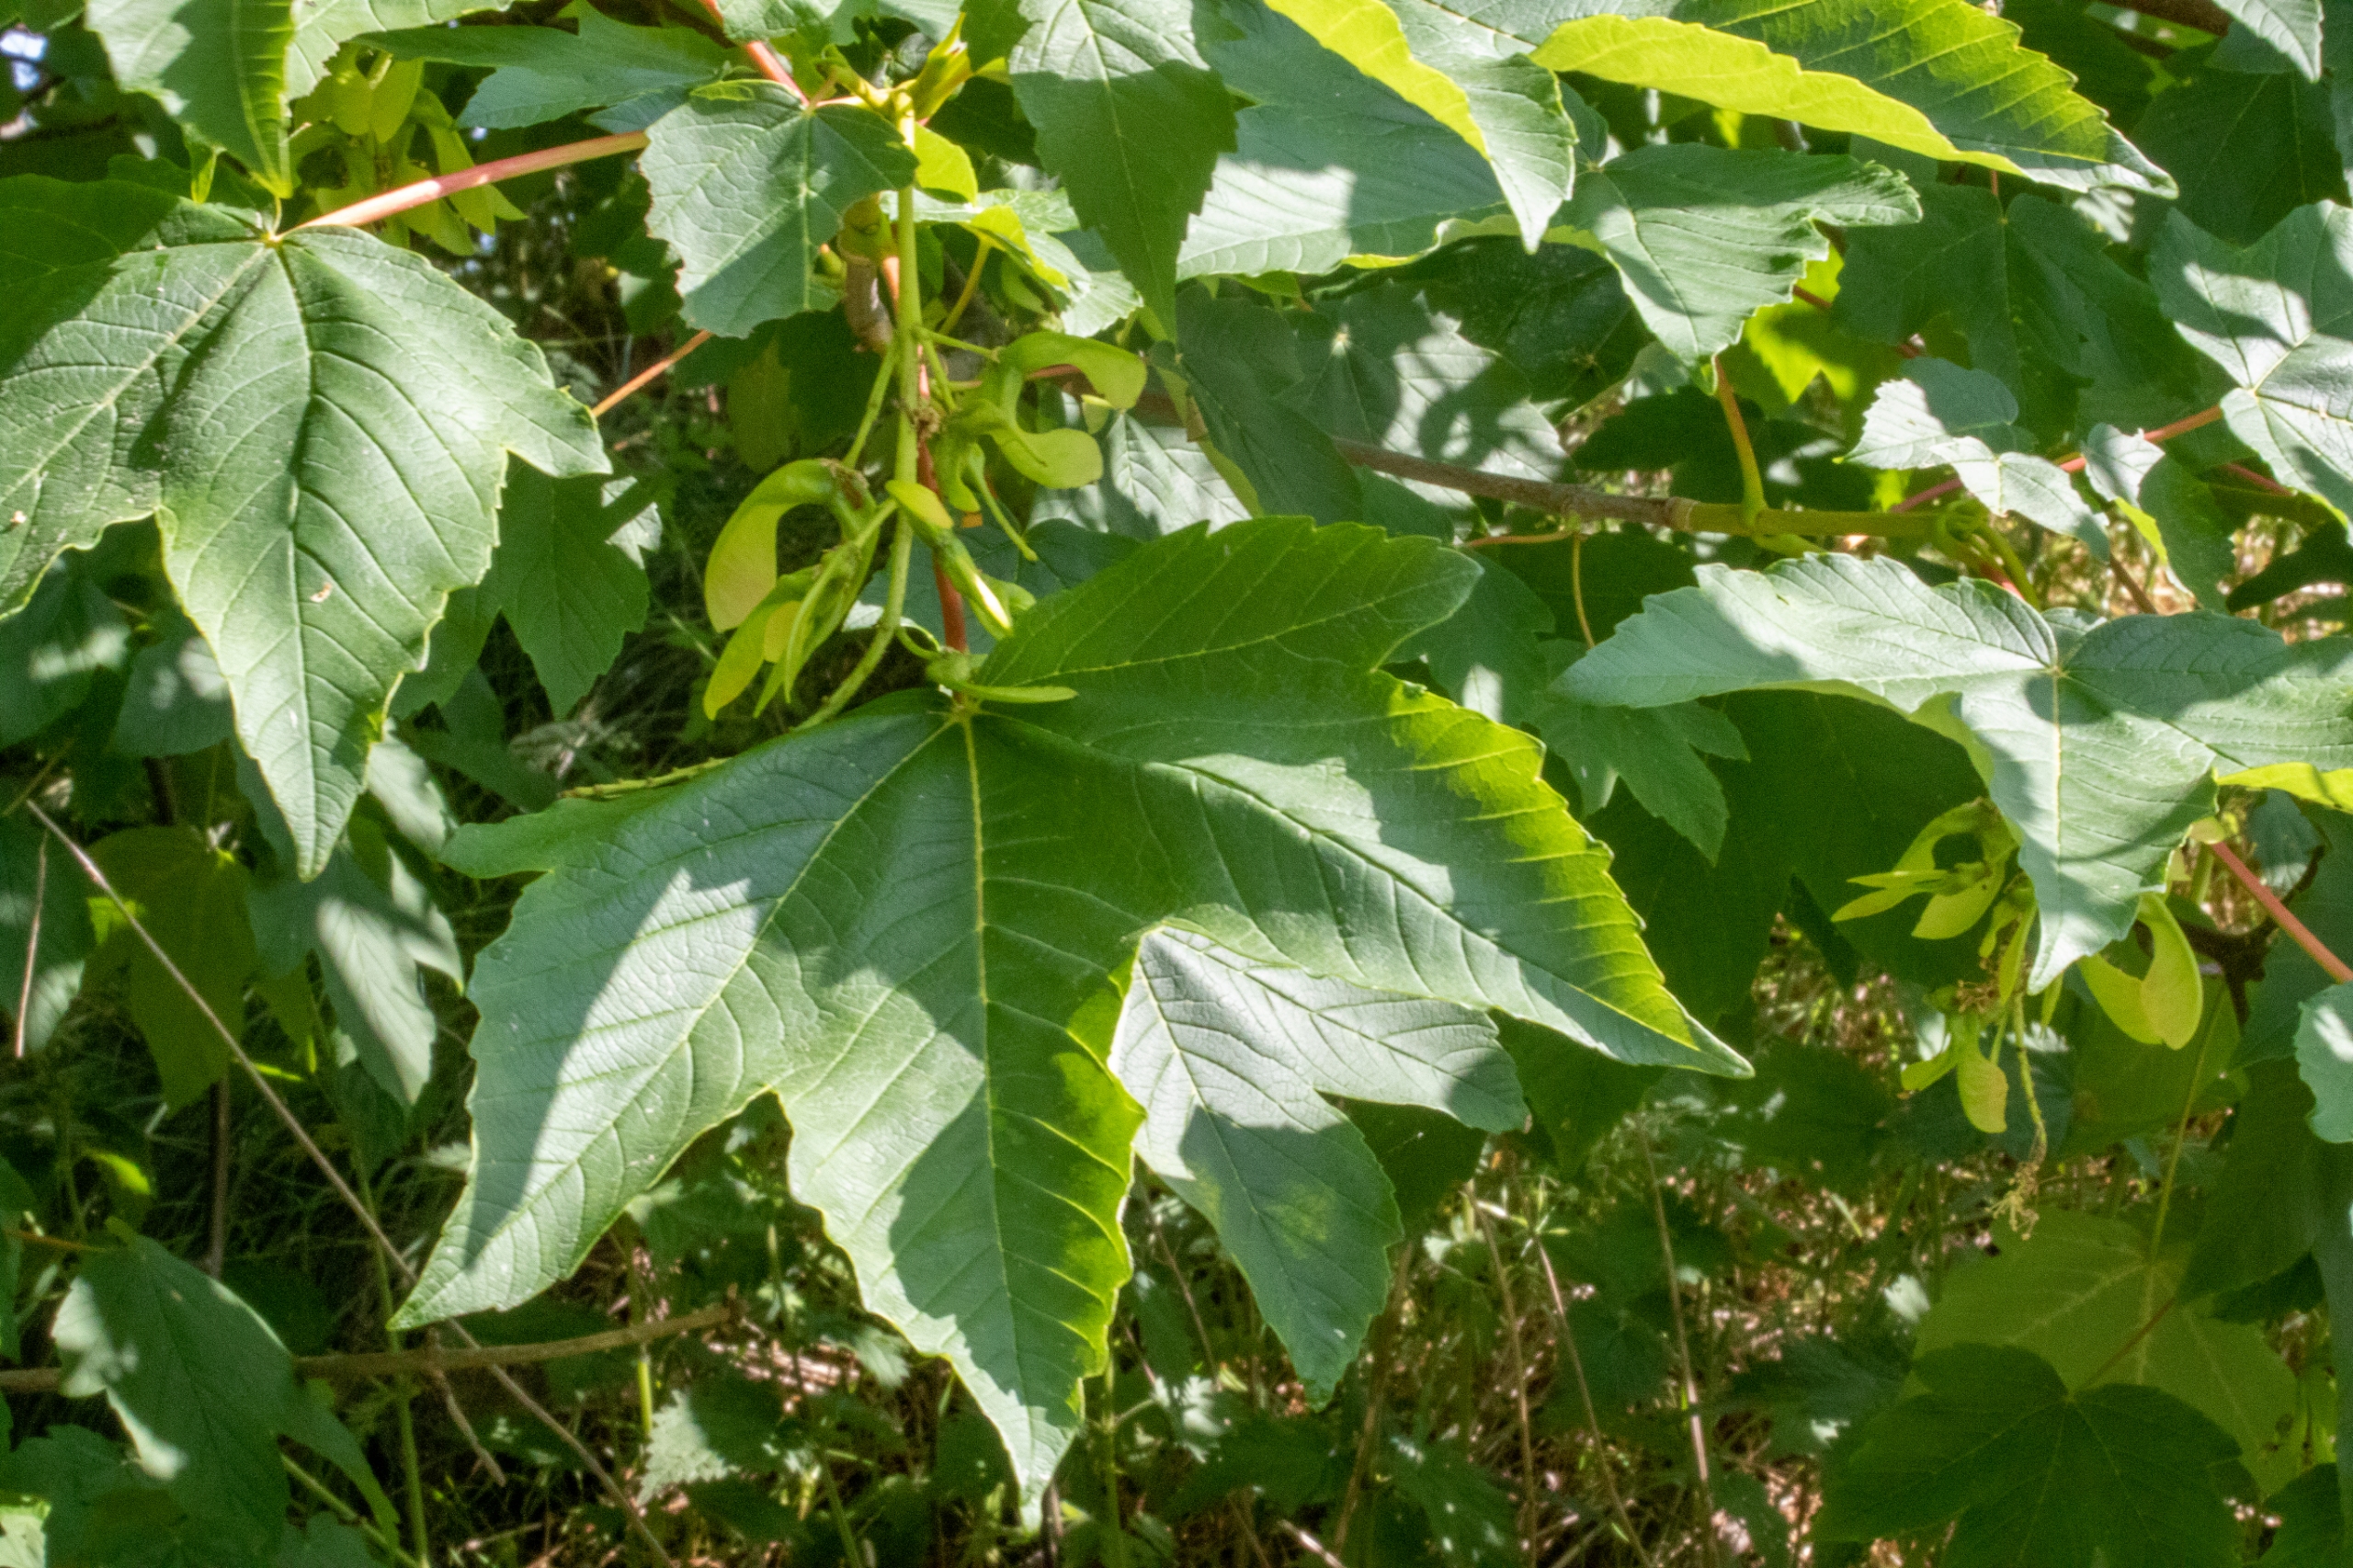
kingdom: Plantae
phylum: Tracheophyta
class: Magnoliopsida
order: Sapindales
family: Sapindaceae
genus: Acer
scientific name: Acer pseudoplatanus
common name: Ahorn
